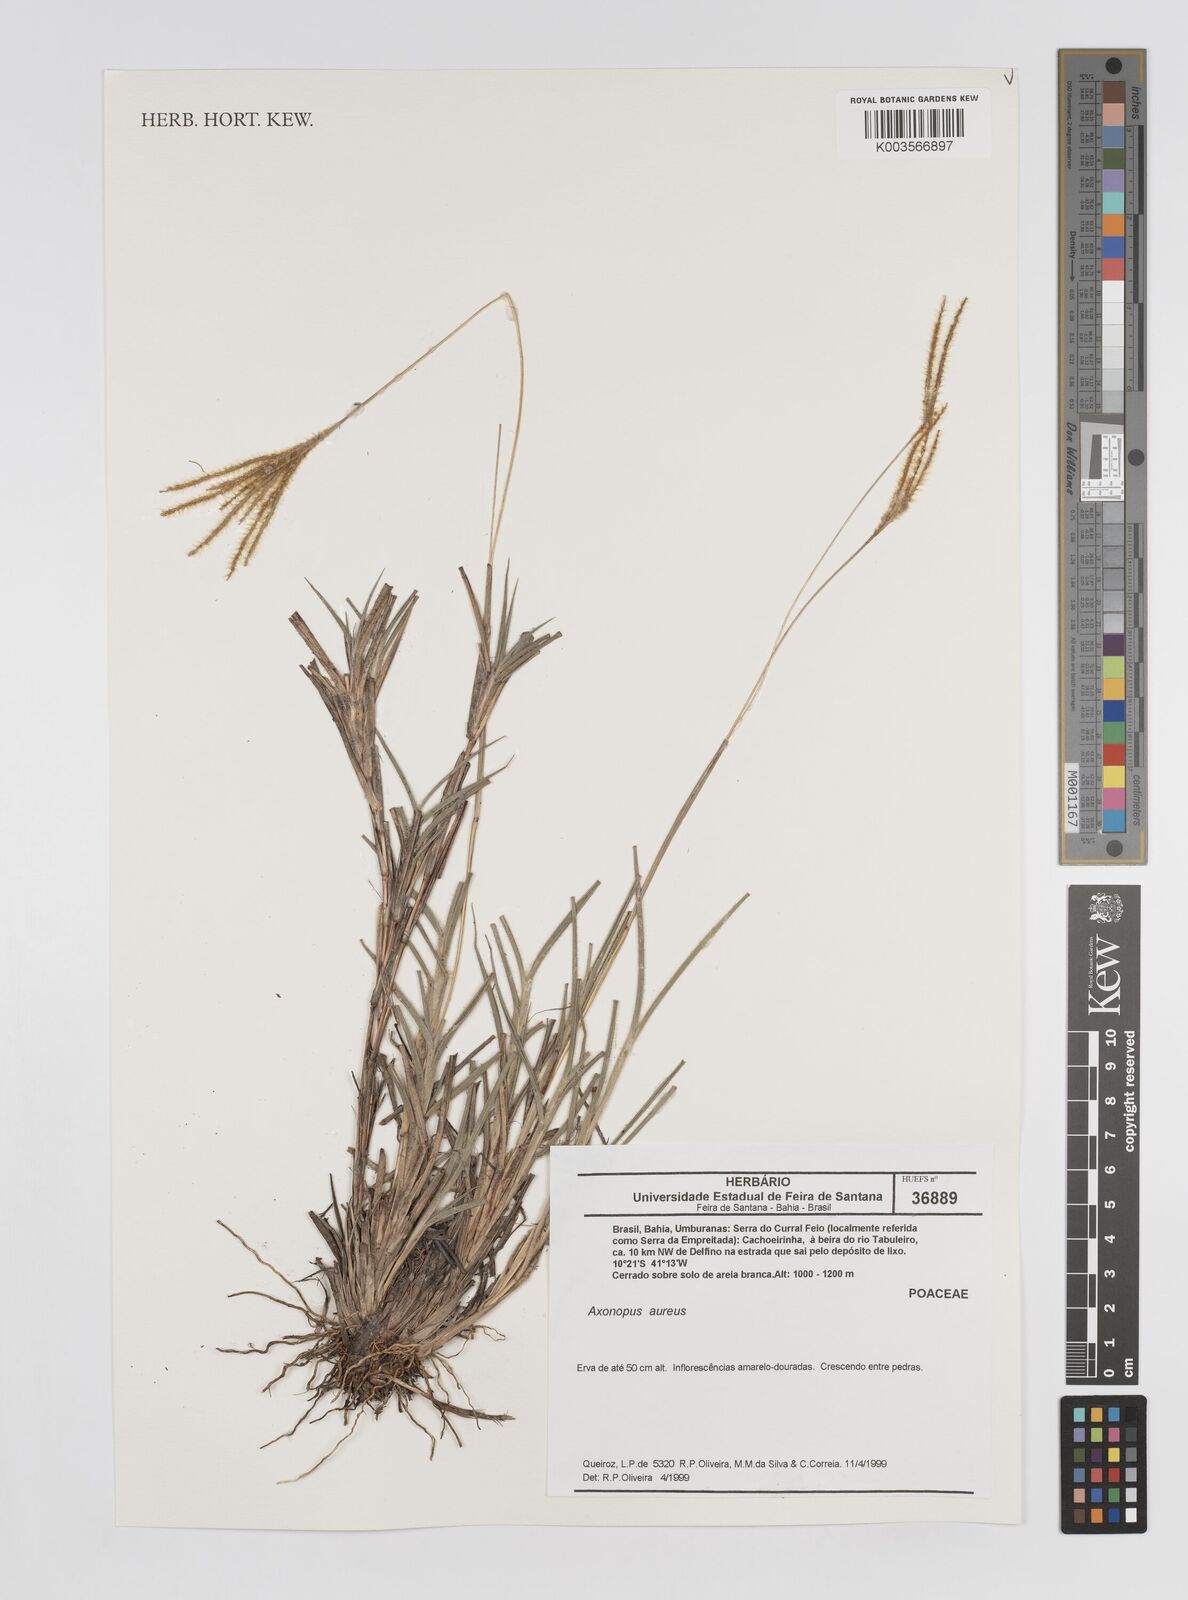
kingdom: Plantae
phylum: Tracheophyta
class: Liliopsida
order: Poales
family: Poaceae
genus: Axonopus
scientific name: Axonopus aureus
